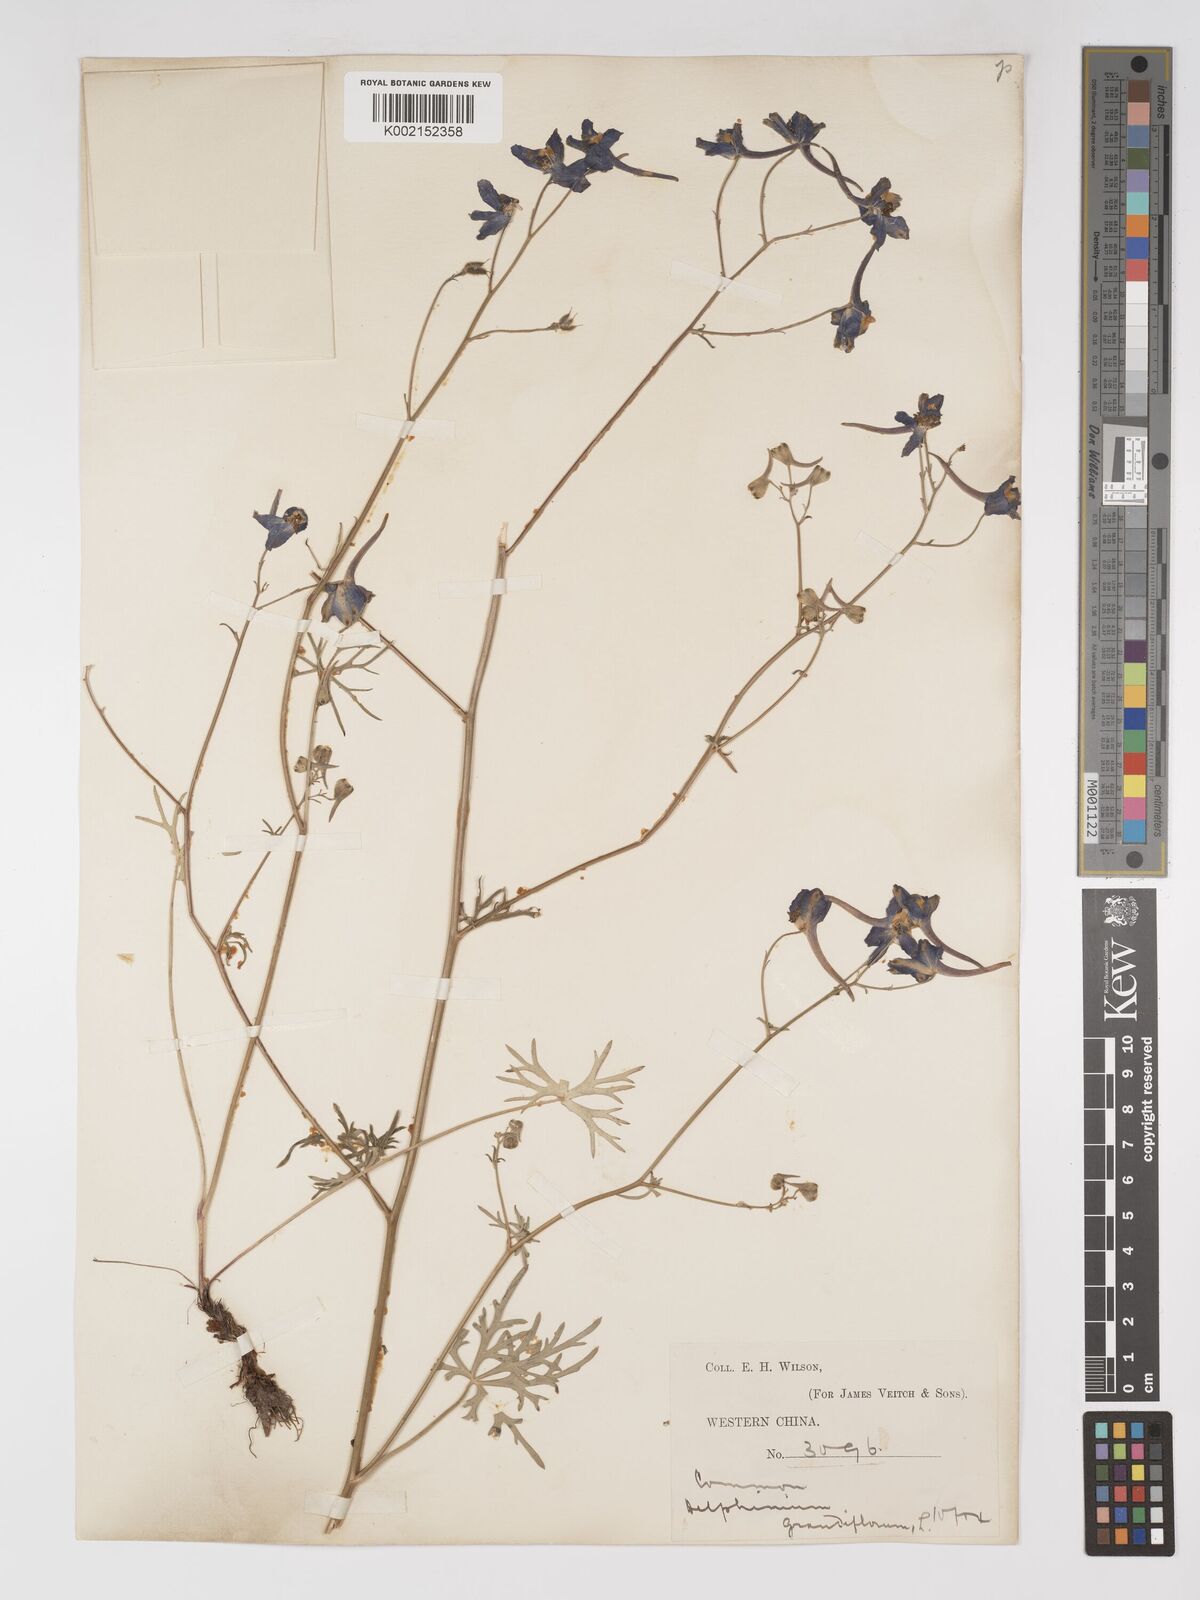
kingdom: Plantae
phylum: Tracheophyta
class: Magnoliopsida
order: Ranunculales
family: Ranunculaceae
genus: Delphinium
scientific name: Delphinium tatsienense
